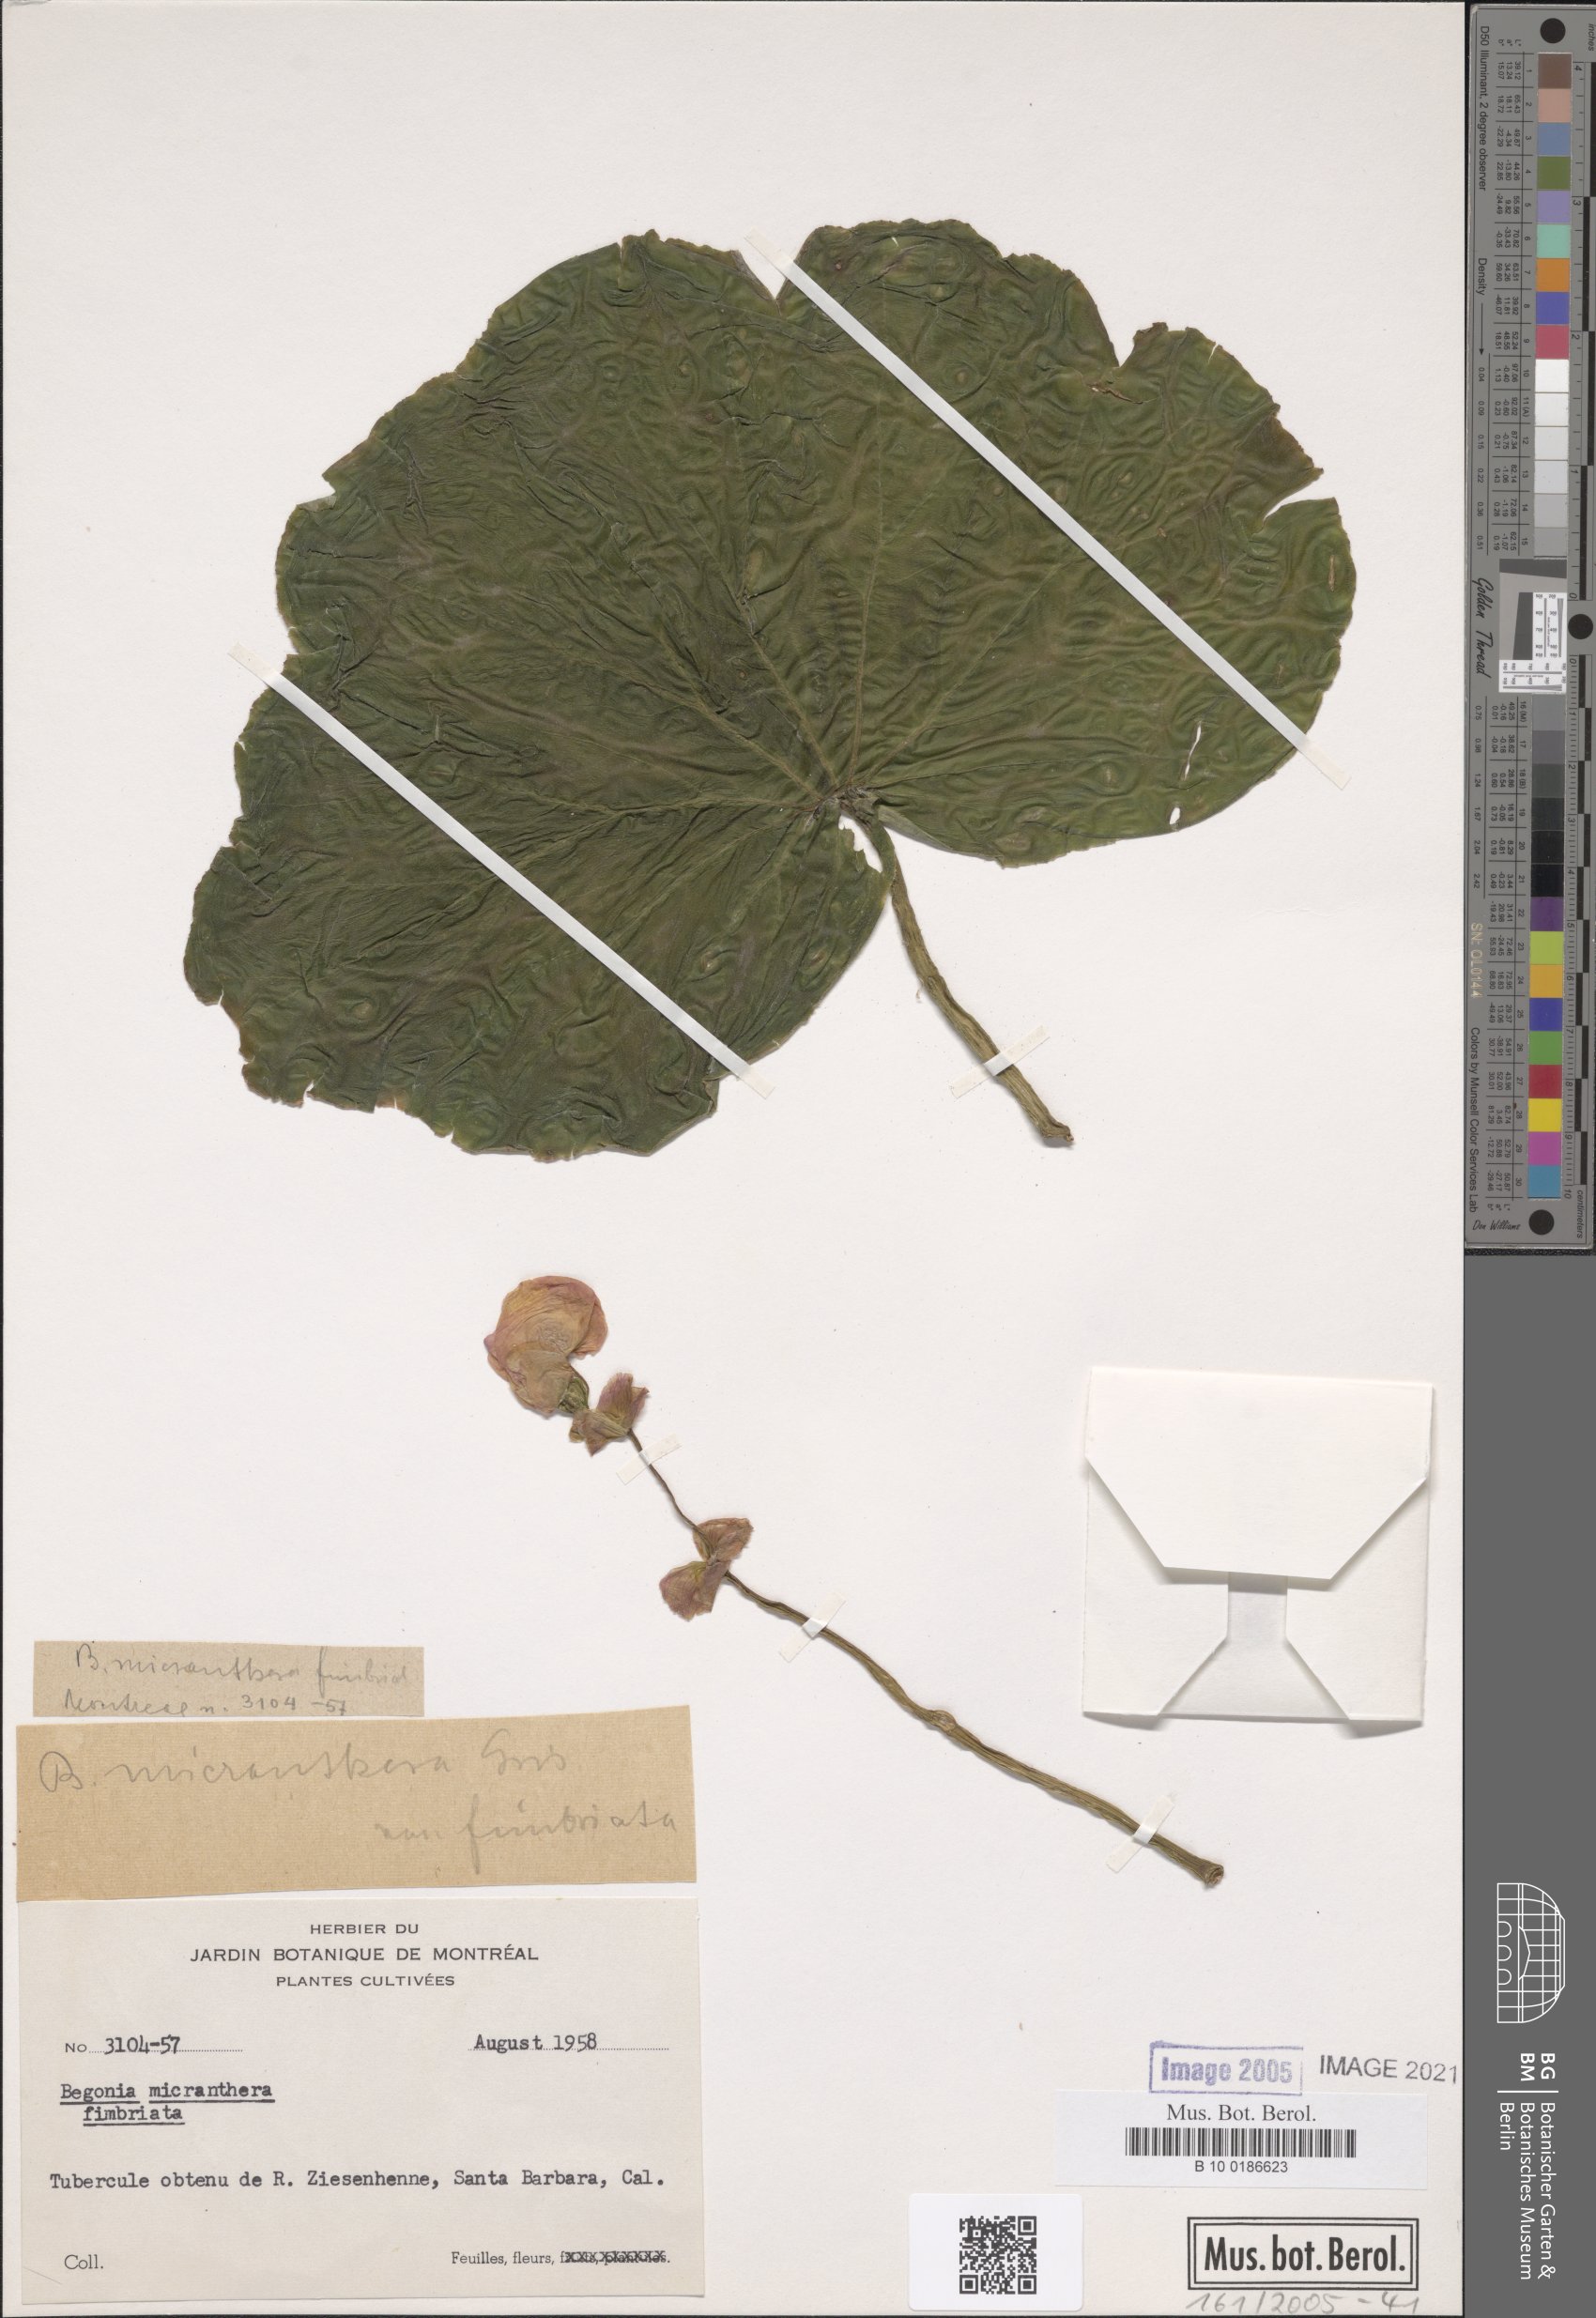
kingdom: Plantae
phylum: Tracheophyta
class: Magnoliopsida
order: Cucurbitales
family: Begoniaceae
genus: Begonia
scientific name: Begonia micranthera
